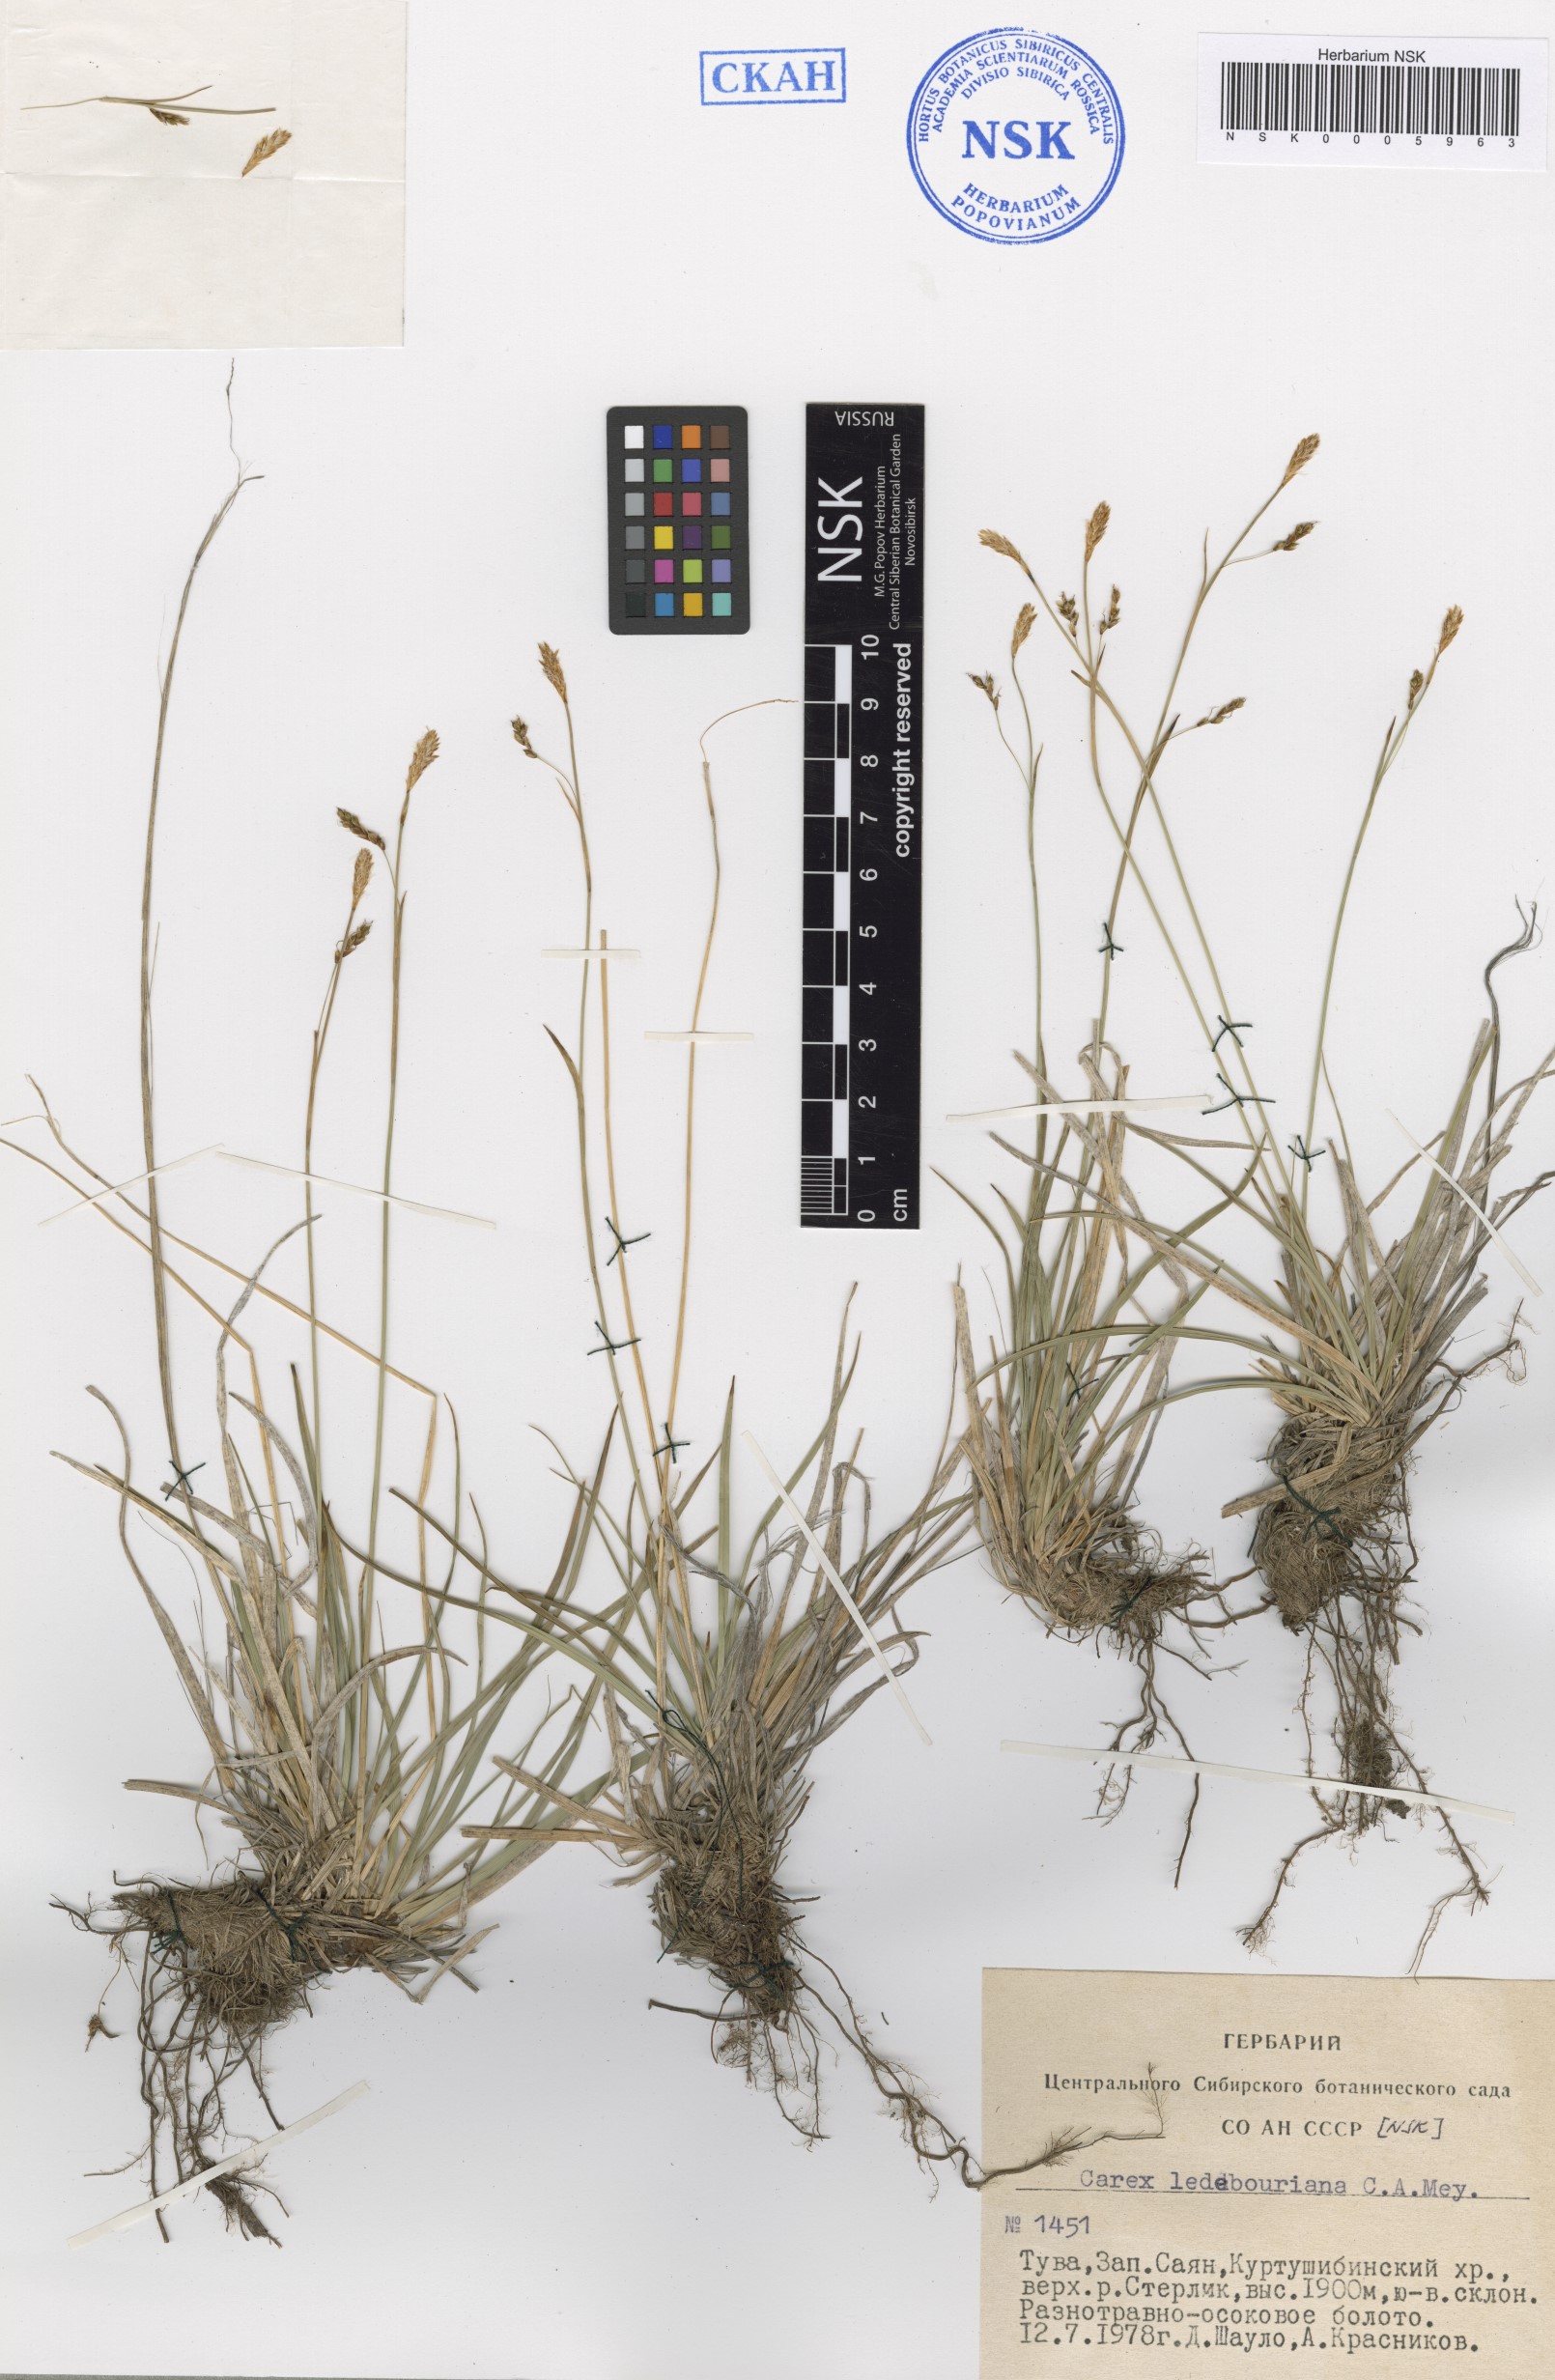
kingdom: Plantae
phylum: Tracheophyta
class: Liliopsida
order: Poales
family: Cyperaceae
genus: Carex
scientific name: Carex ledebouriana
